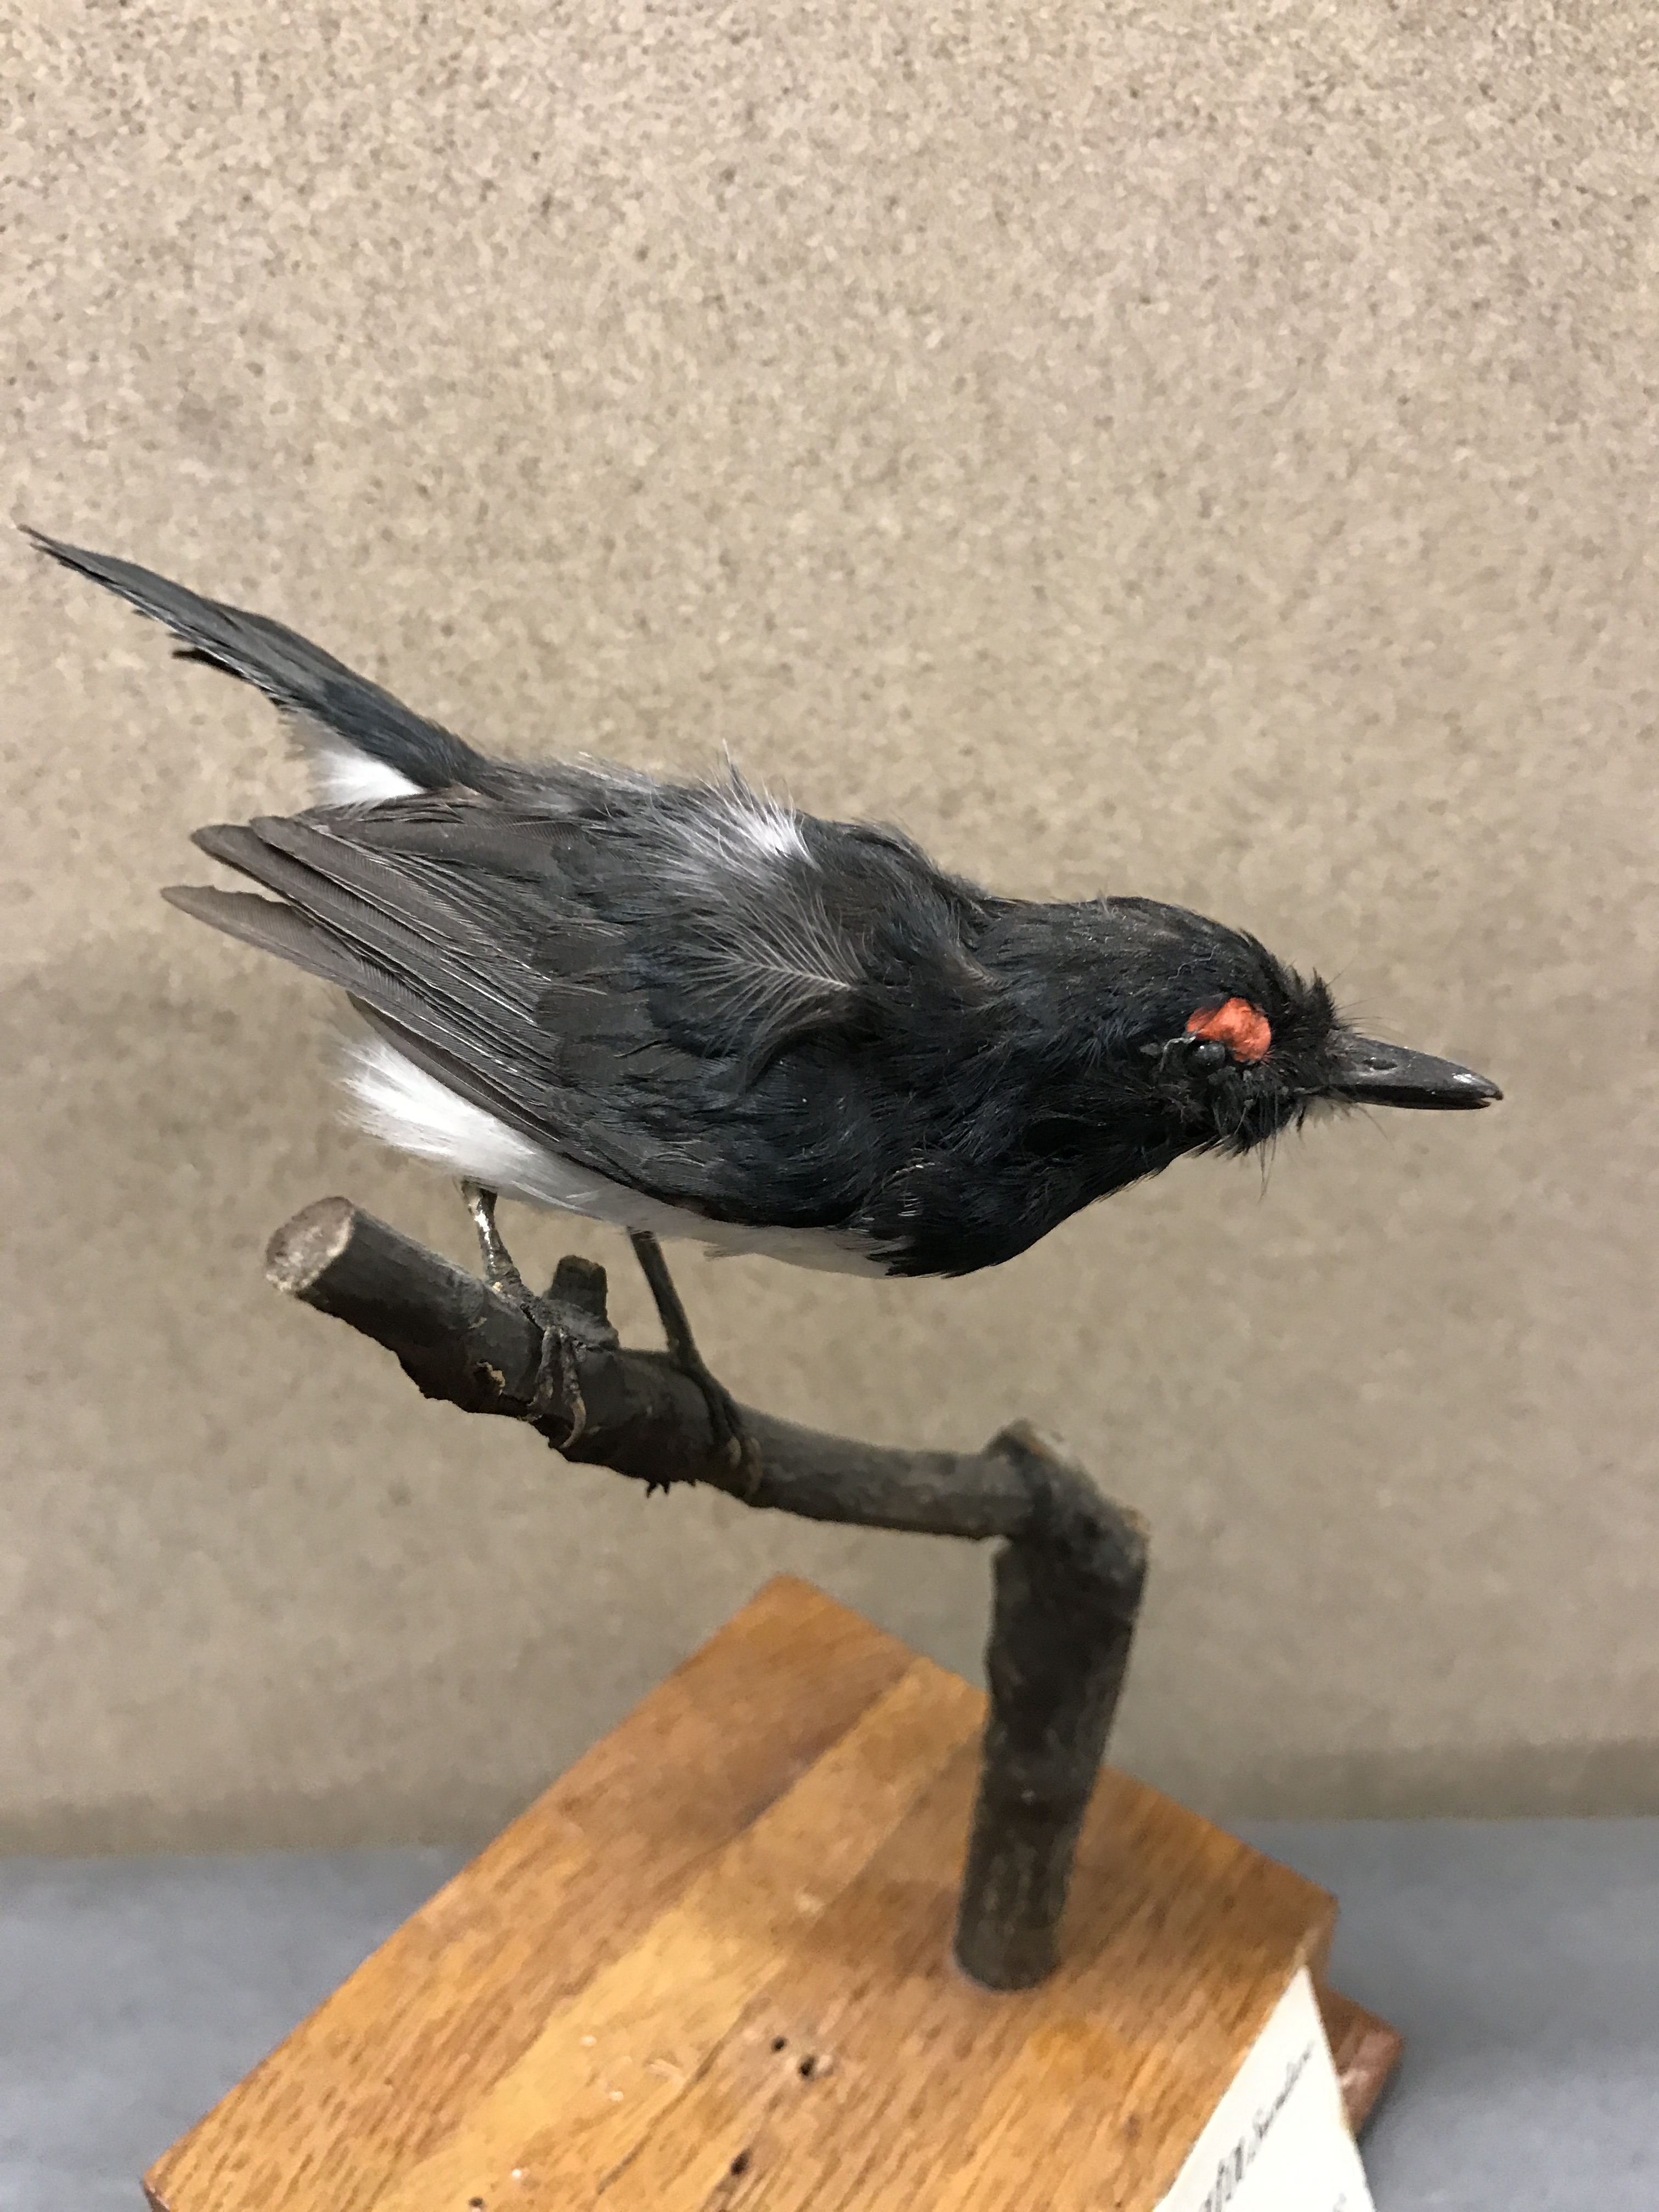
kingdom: Animalia
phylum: Chordata
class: Aves
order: Passeriformes
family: Platysteiridae
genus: Platysteira
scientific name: Platysteira peltata
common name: Black-throated wattle-eye
